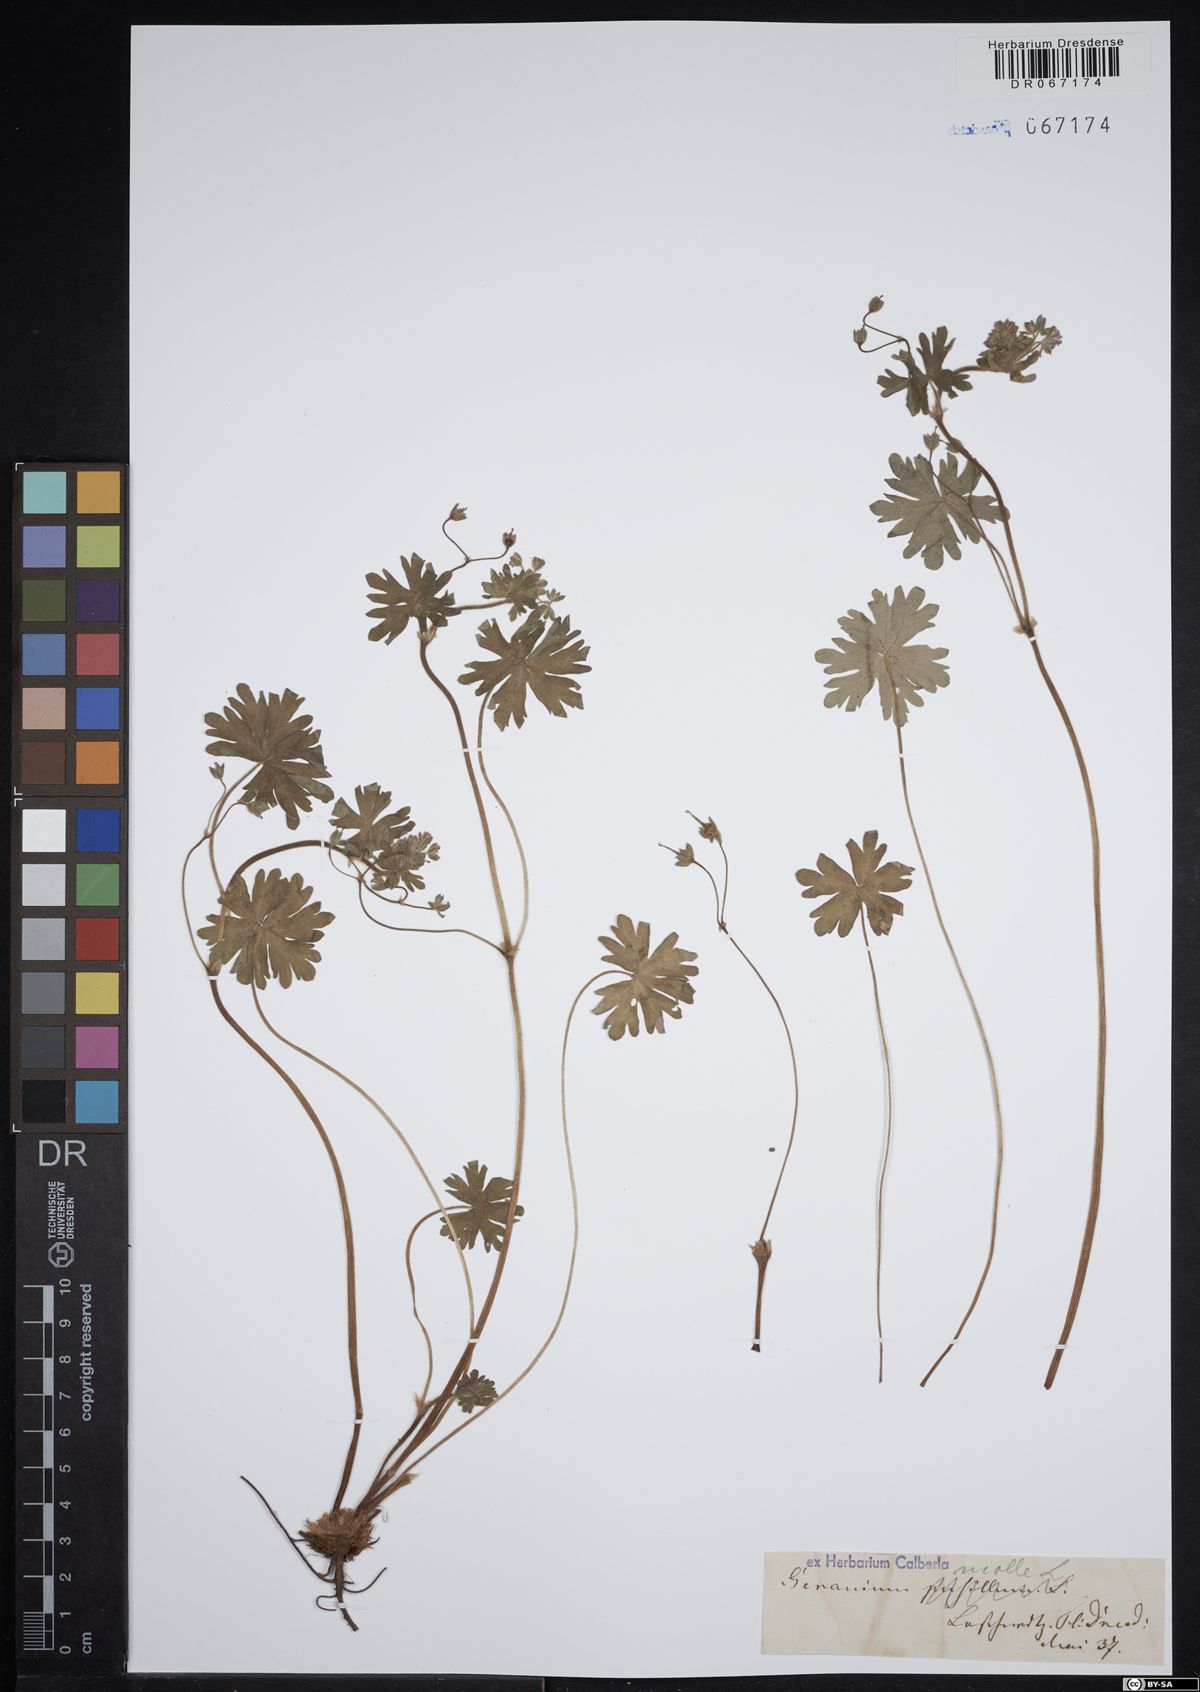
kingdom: Plantae
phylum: Tracheophyta
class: Magnoliopsida
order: Geraniales
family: Geraniaceae
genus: Geranium
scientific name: Geranium molle
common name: Dove's-foot crane's-bill
